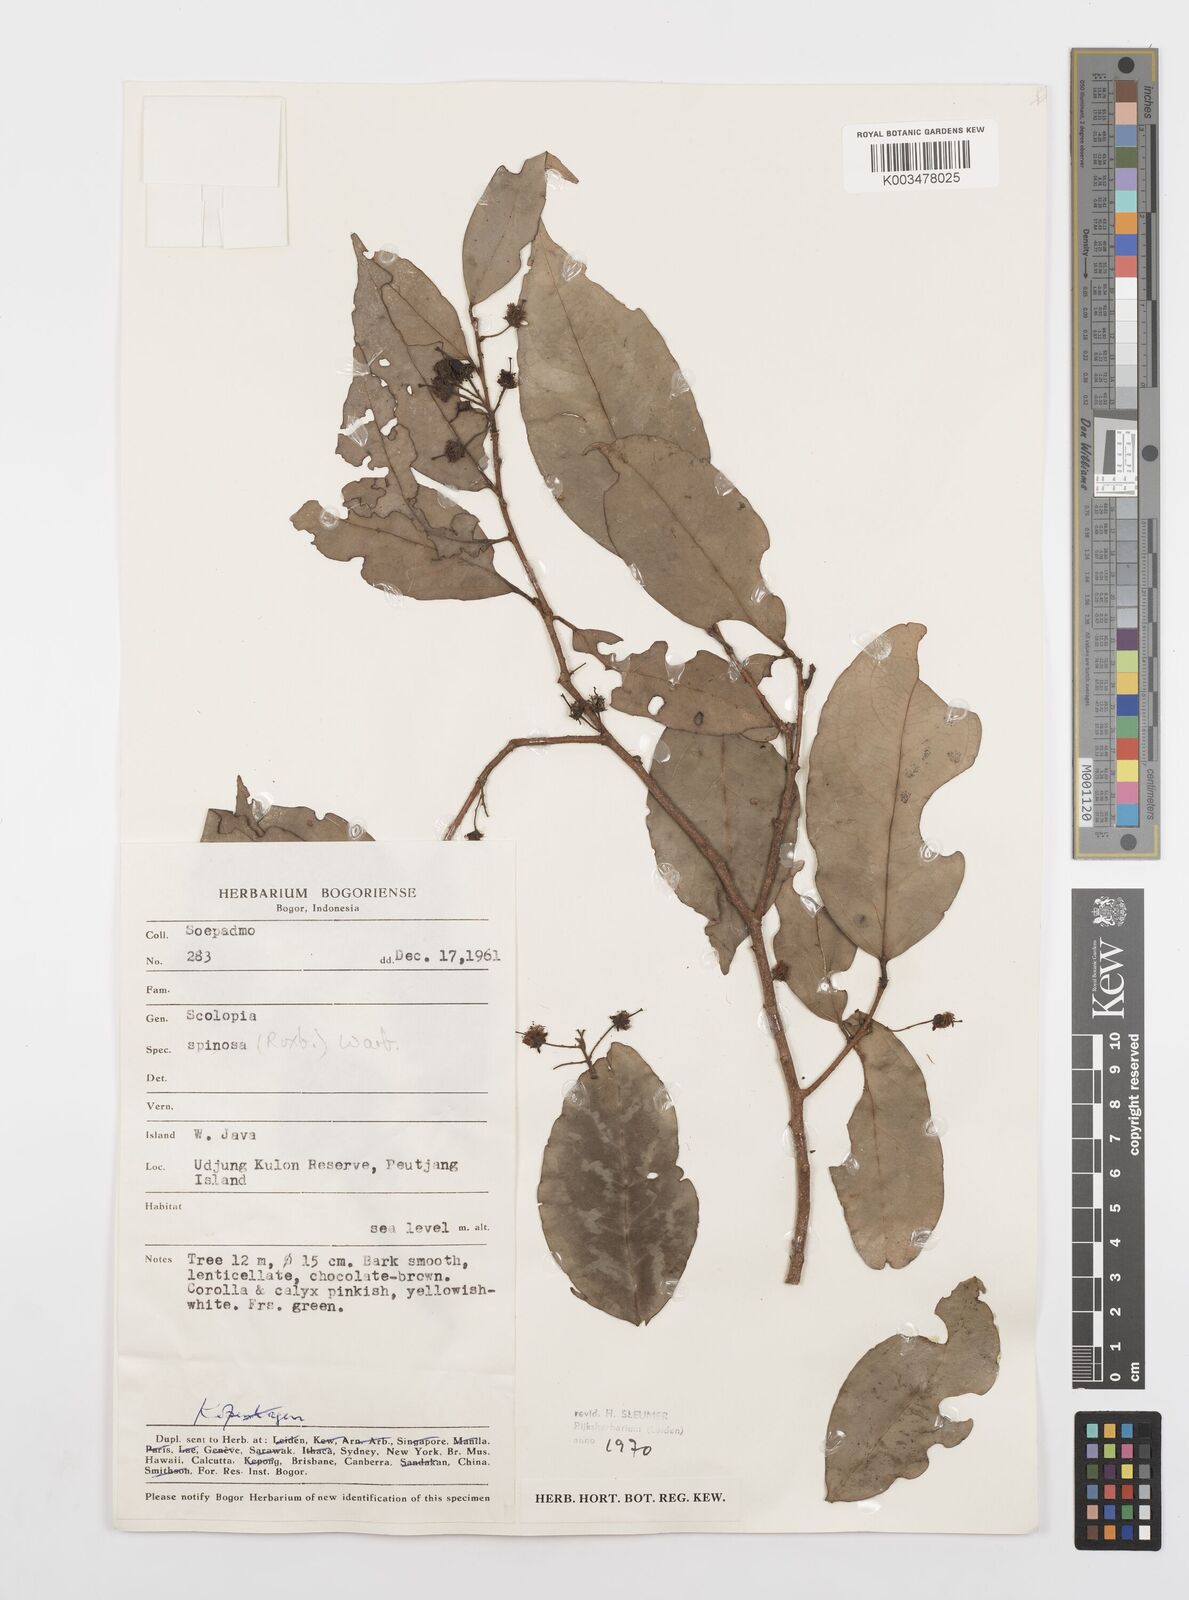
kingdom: Plantae
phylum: Tracheophyta
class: Magnoliopsida
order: Malpighiales
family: Salicaceae
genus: Scolopia
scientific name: Scolopia spinosa
